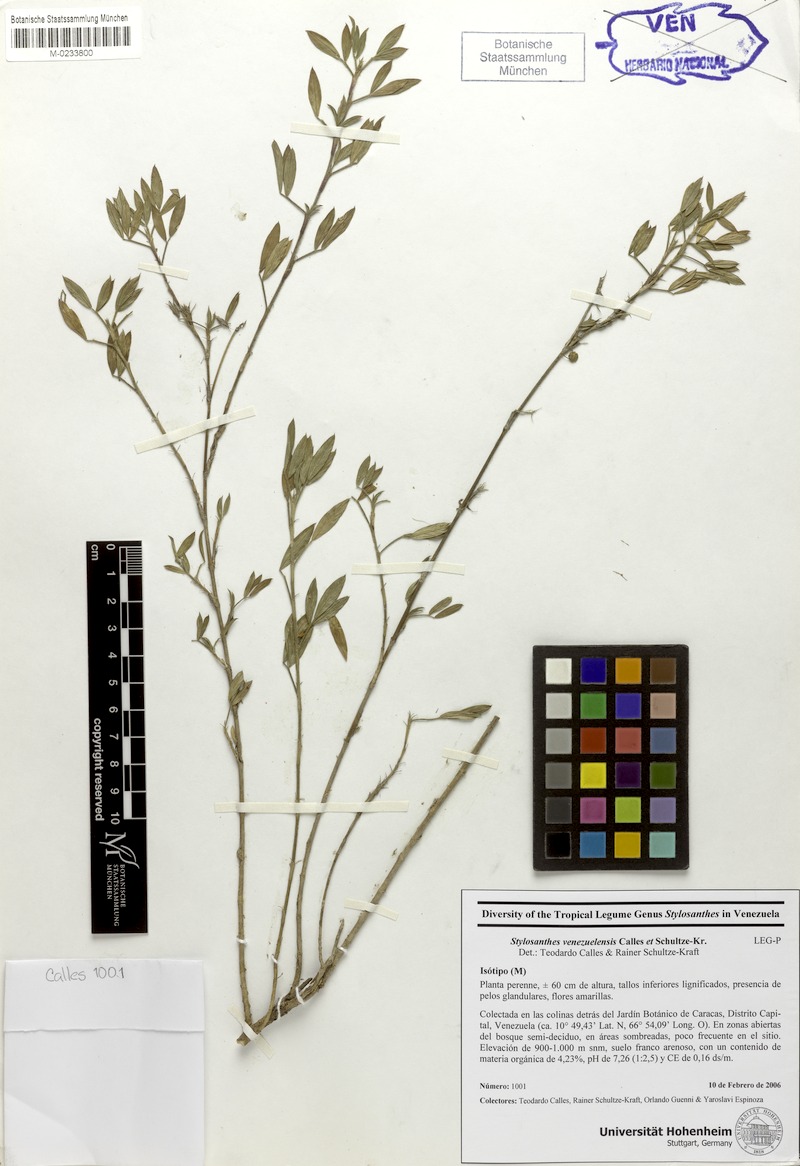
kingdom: Plantae
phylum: Tracheophyta
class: Magnoliopsida
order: Fabales
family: Fabaceae
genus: Stylosanthes
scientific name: Stylosanthes venezuelensis
